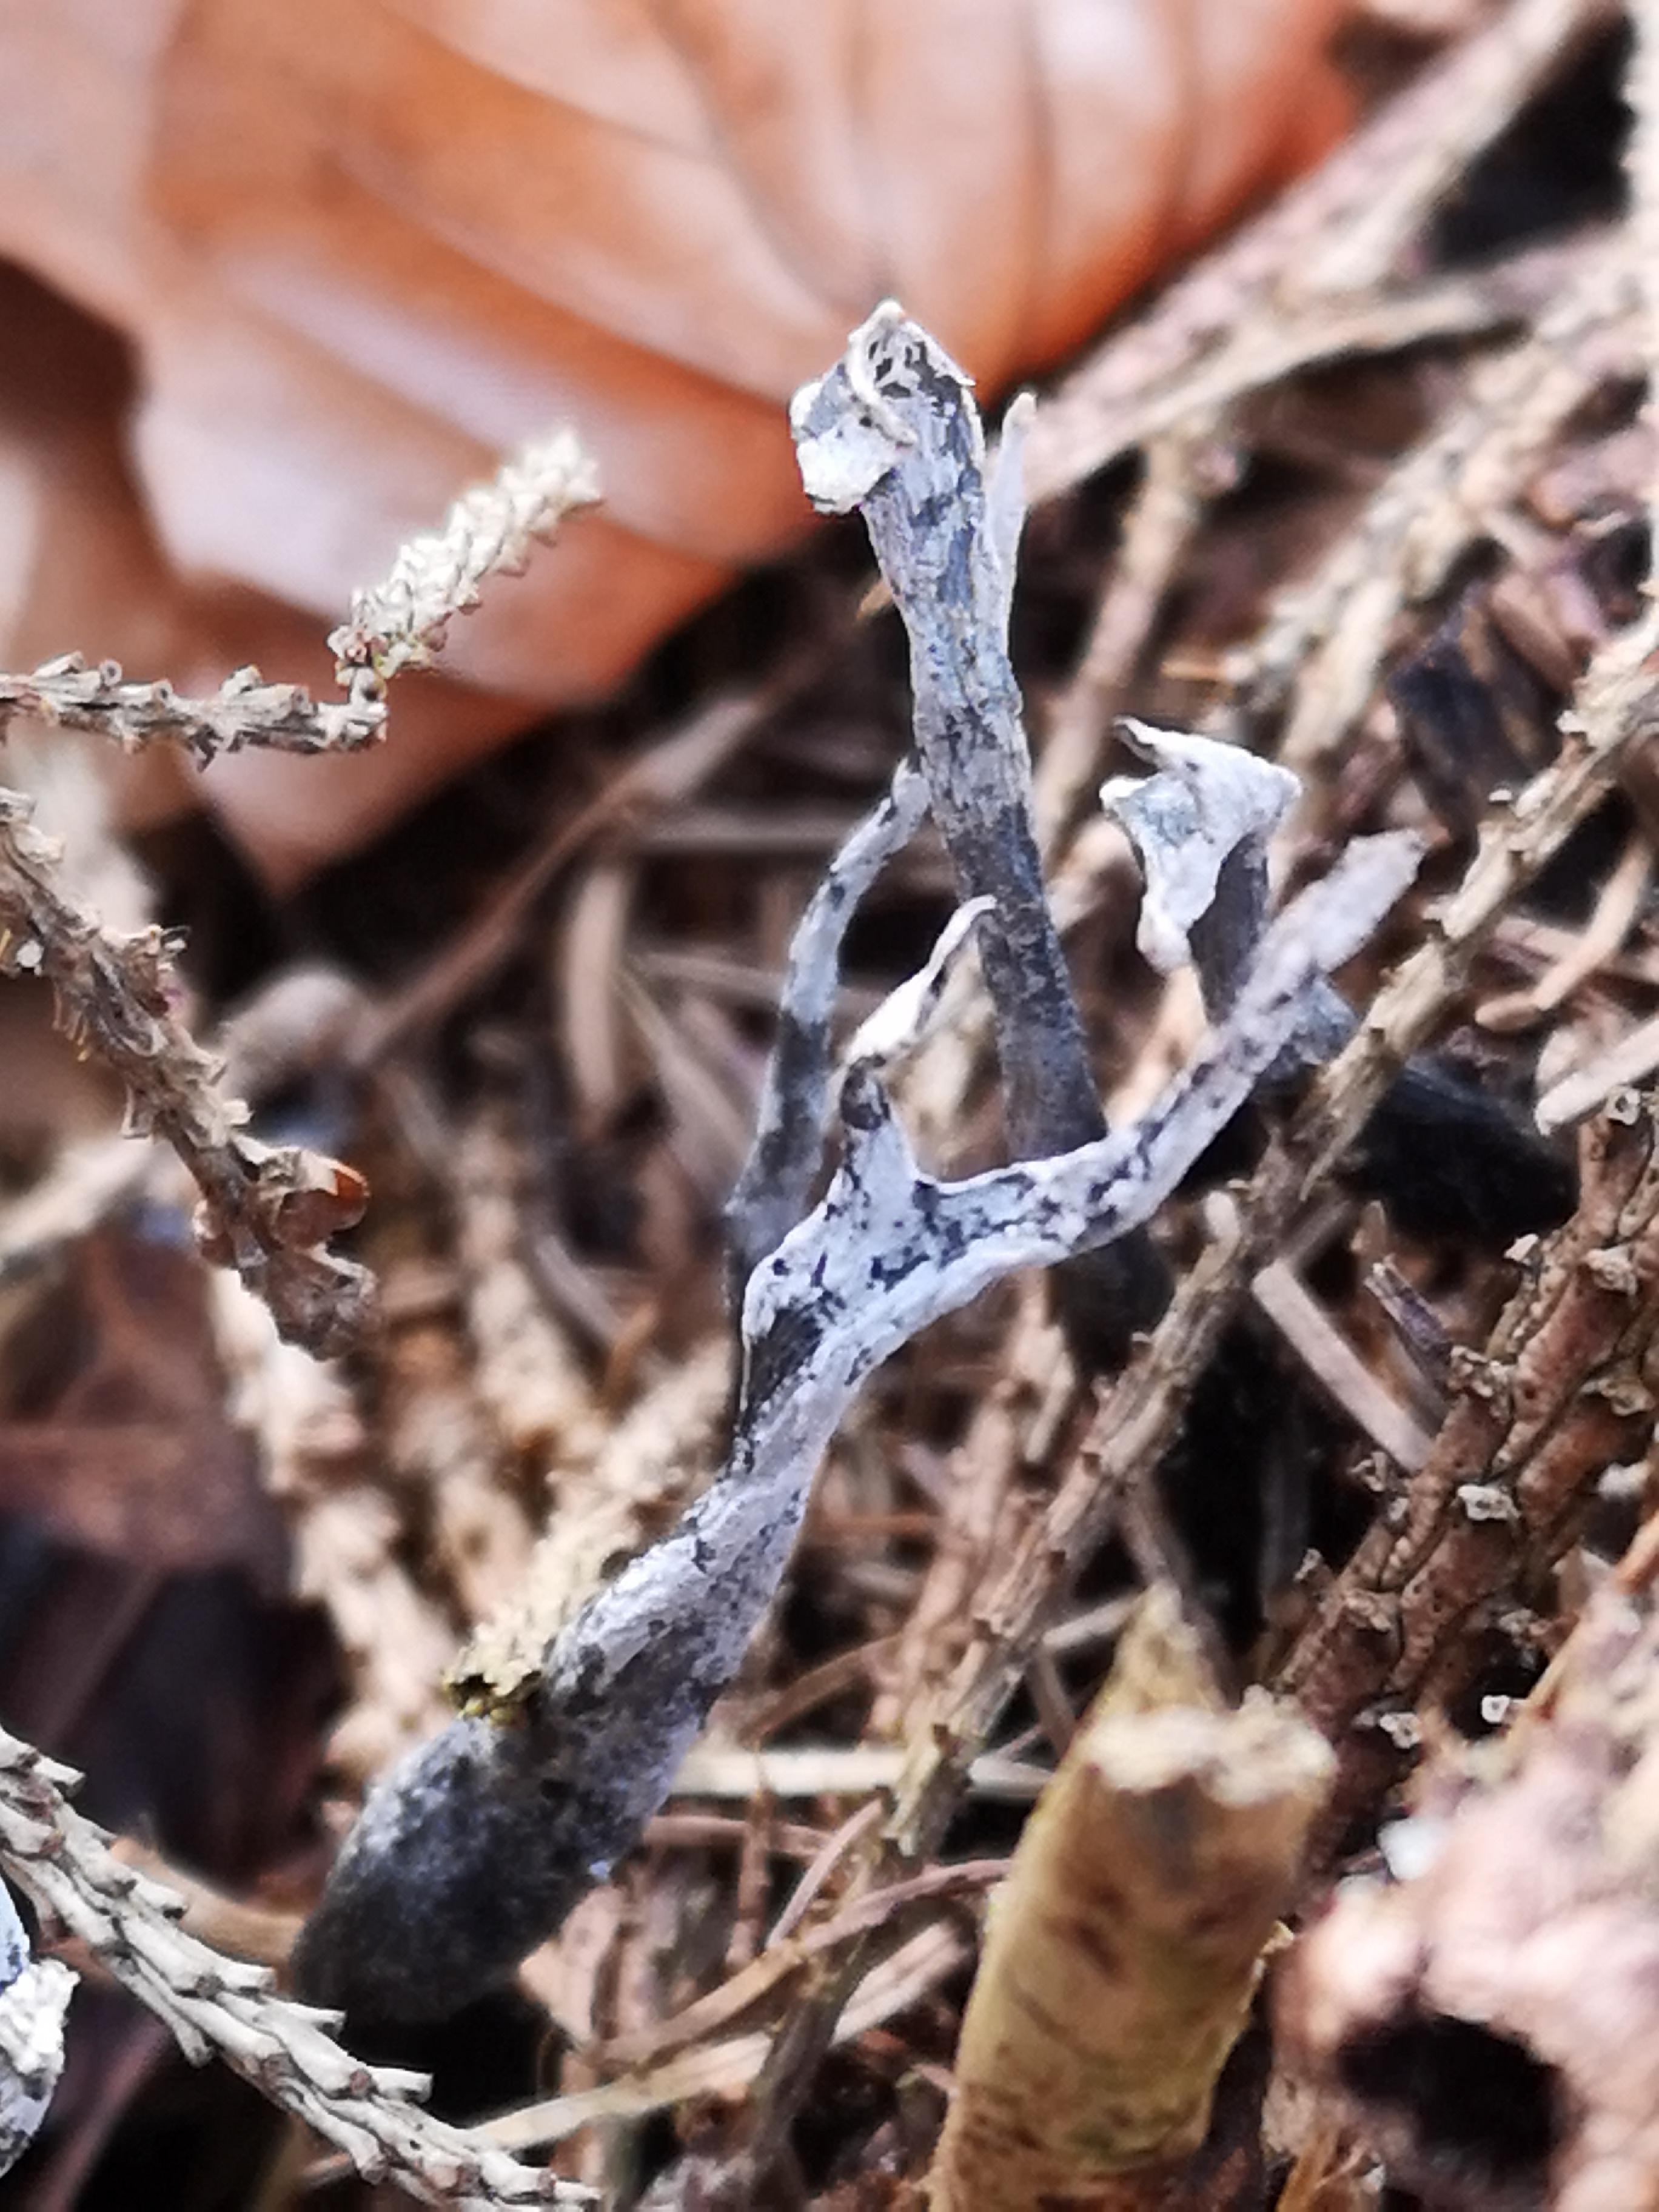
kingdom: Fungi
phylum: Ascomycota
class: Sordariomycetes
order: Xylariales
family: Xylariaceae
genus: Xylaria
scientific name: Xylaria hypoxylon
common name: grenet stødsvamp
